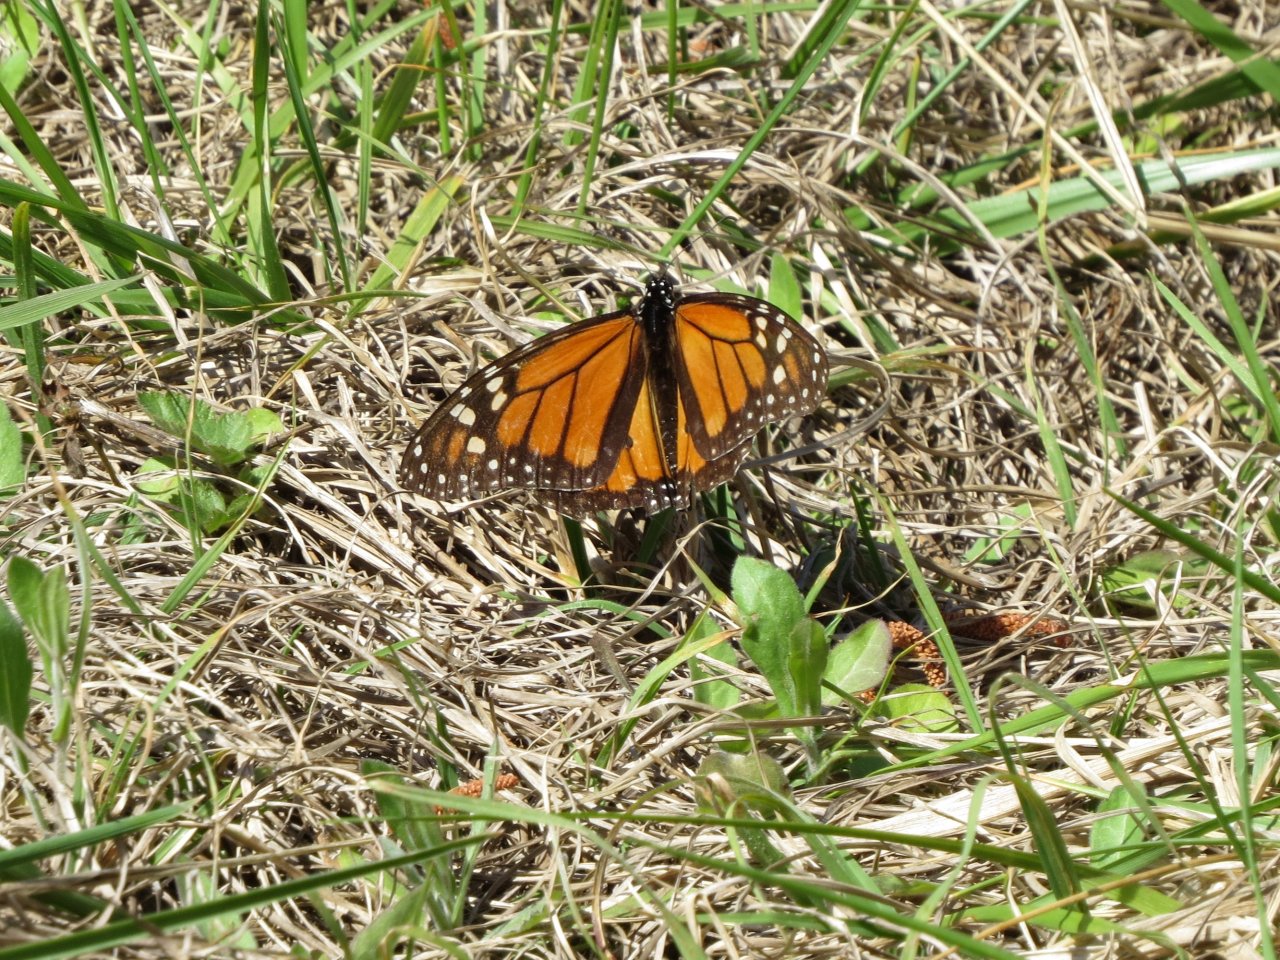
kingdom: Animalia
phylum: Arthropoda
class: Insecta
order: Lepidoptera
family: Nymphalidae
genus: Danaus
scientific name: Danaus plexippus
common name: Monarch
